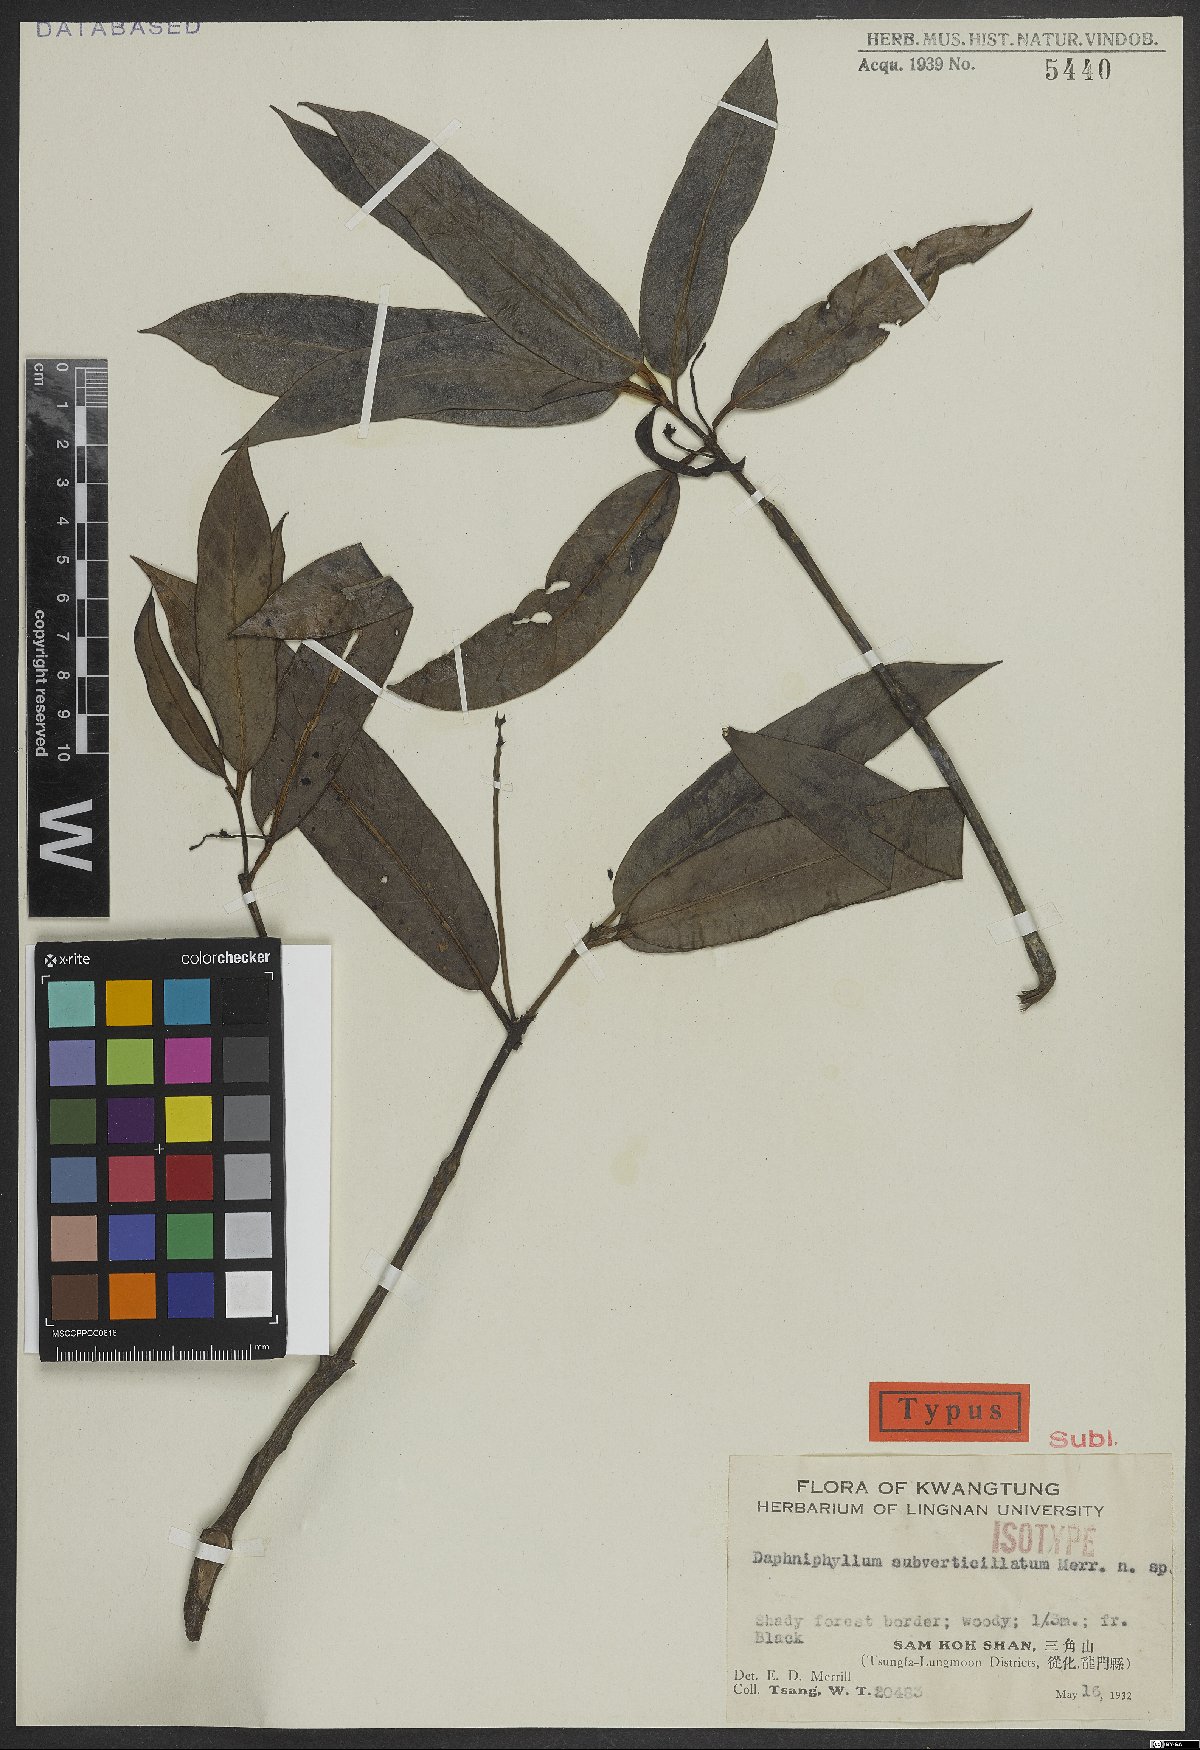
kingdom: Plantae
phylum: Tracheophyta
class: Magnoliopsida
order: Saxifragales
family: Daphniphyllaceae
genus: Daphniphyllum
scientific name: Daphniphyllum subverticillatum
